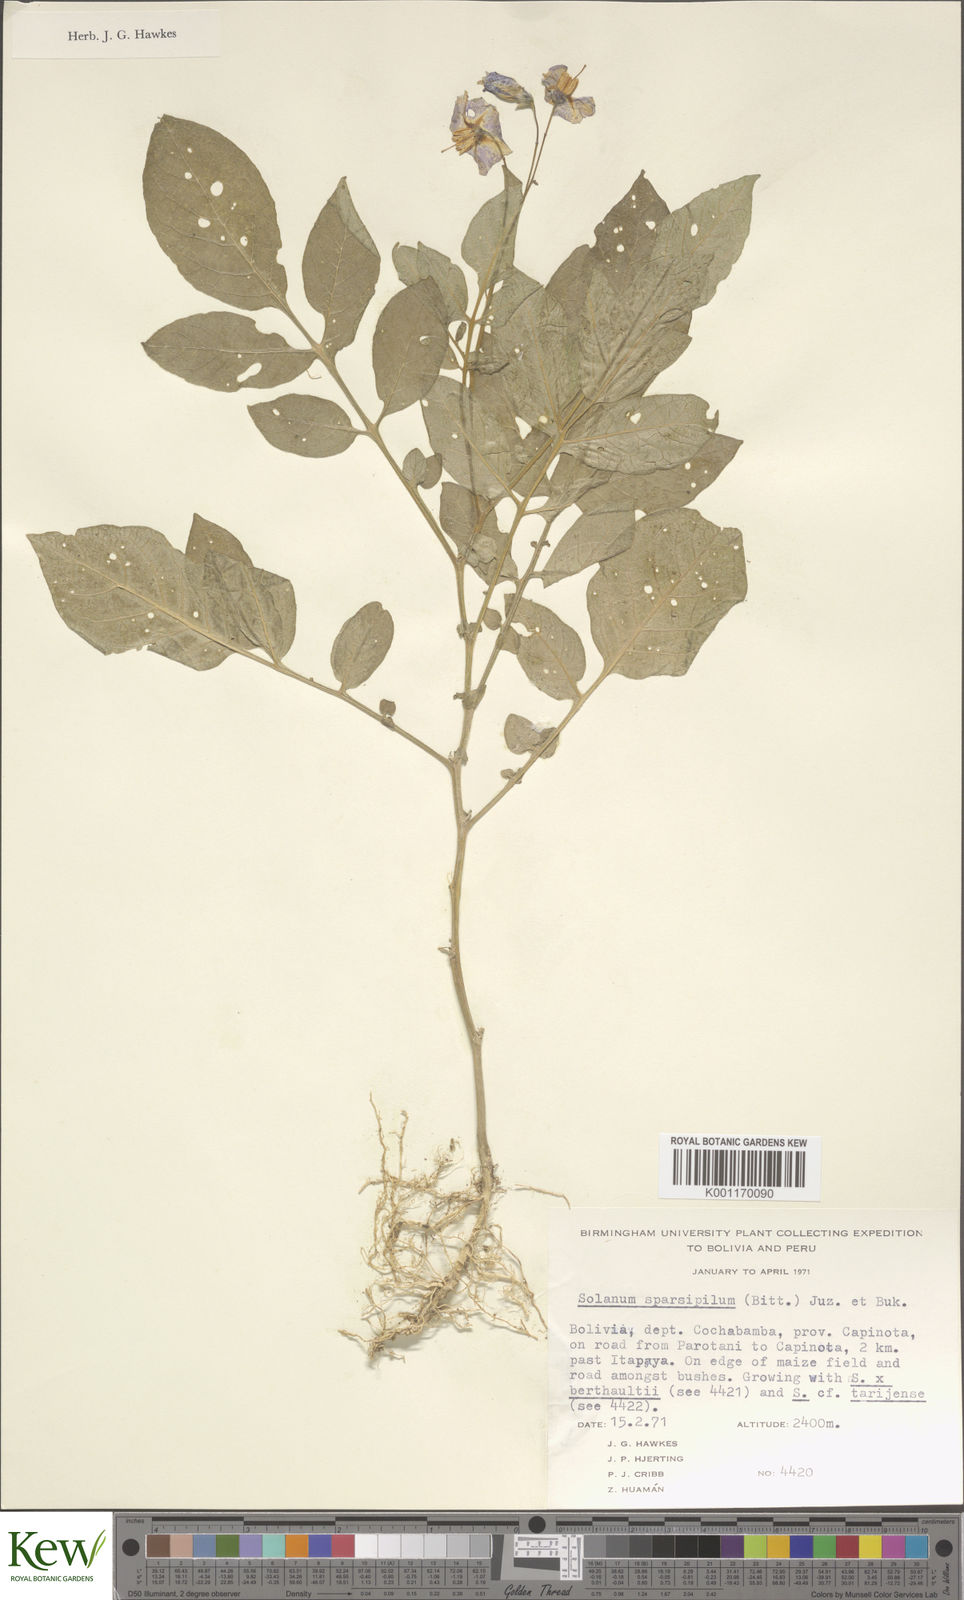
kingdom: Plantae
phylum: Tracheophyta
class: Magnoliopsida
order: Solanales
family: Solanaceae
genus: Solanum
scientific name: Solanum brevicaule
